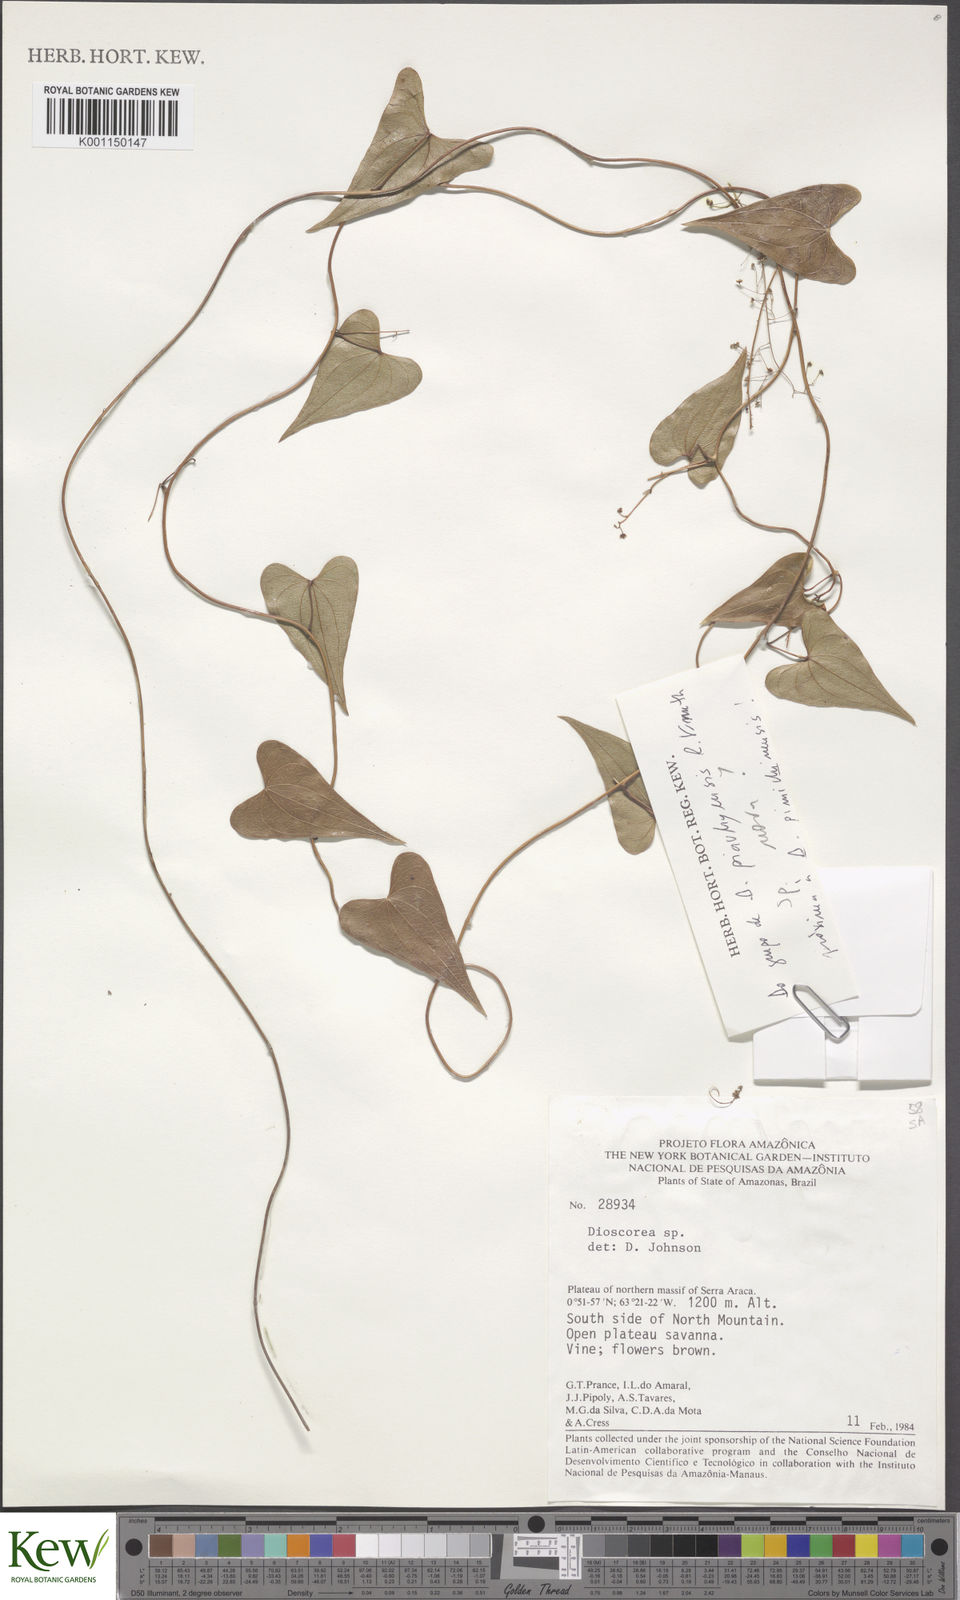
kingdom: Plantae
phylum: Tracheophyta
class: Liliopsida
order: Dioscoreales
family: Dioscoreaceae
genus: Dioscorea
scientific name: Dioscorea
